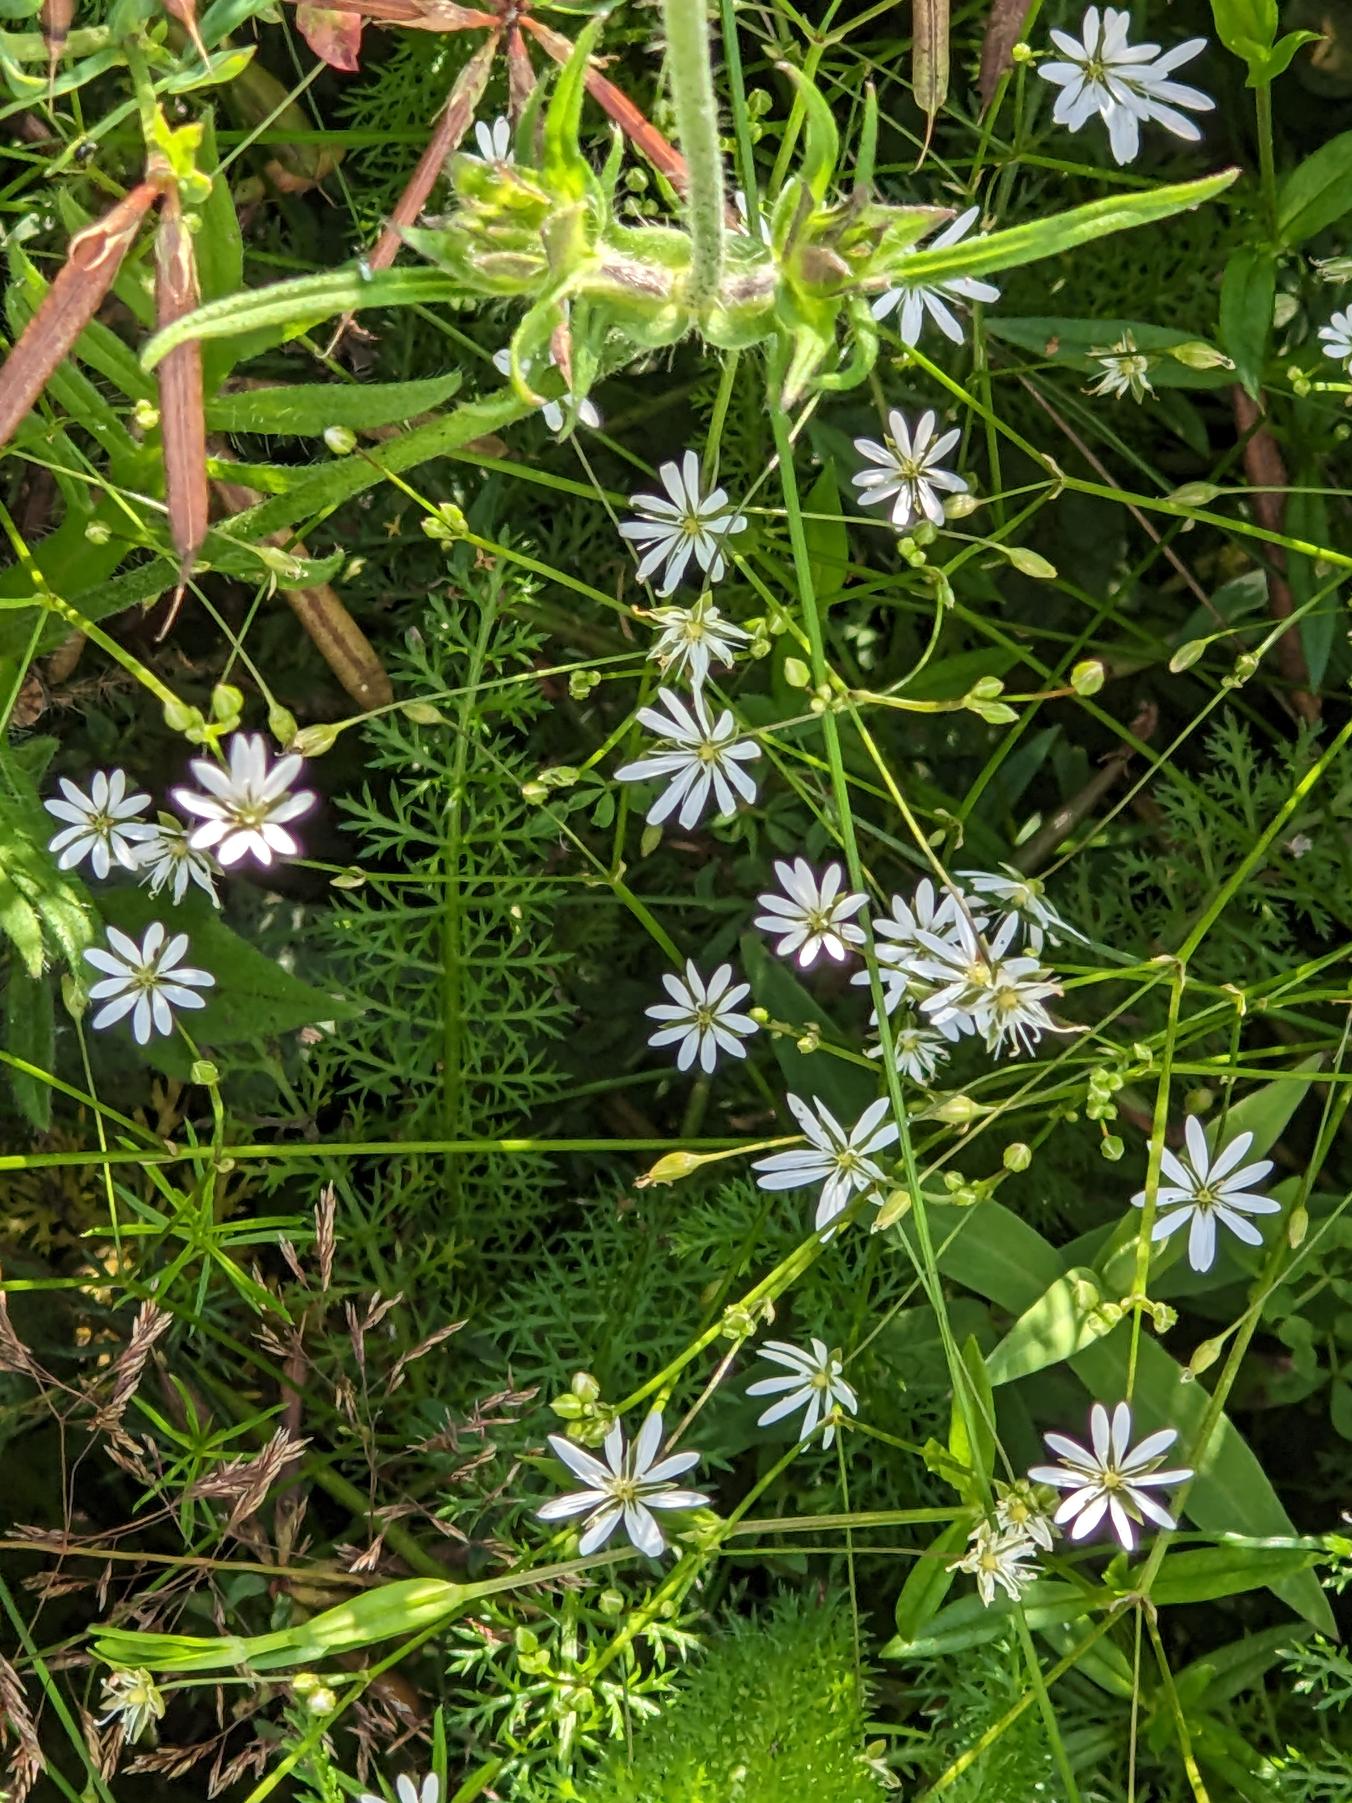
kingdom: Plantae
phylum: Tracheophyta
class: Magnoliopsida
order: Caryophyllales
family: Caryophyllaceae
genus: Stellaria
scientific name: Stellaria graminea
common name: Græsbladet fladstjerne
